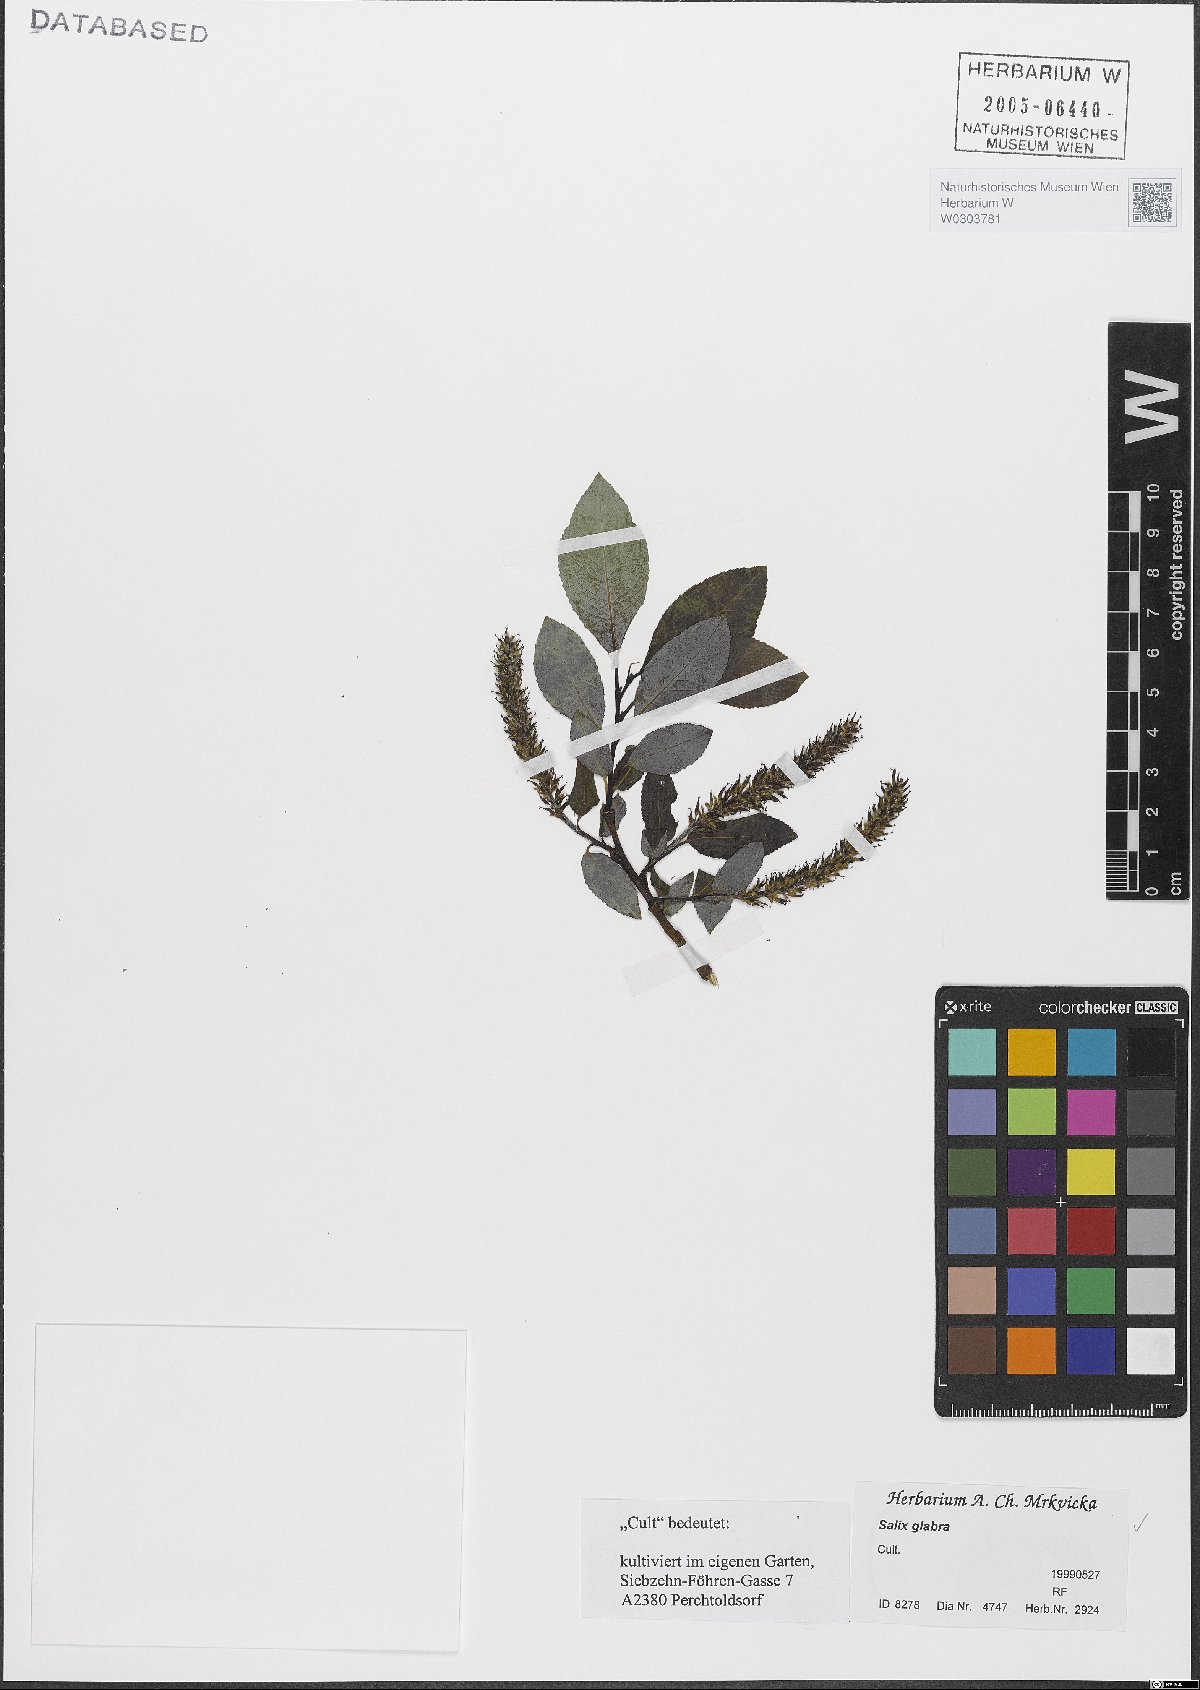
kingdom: Plantae
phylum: Tracheophyta
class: Magnoliopsida
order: Malpighiales
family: Salicaceae
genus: Salix
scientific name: Salix glabra
